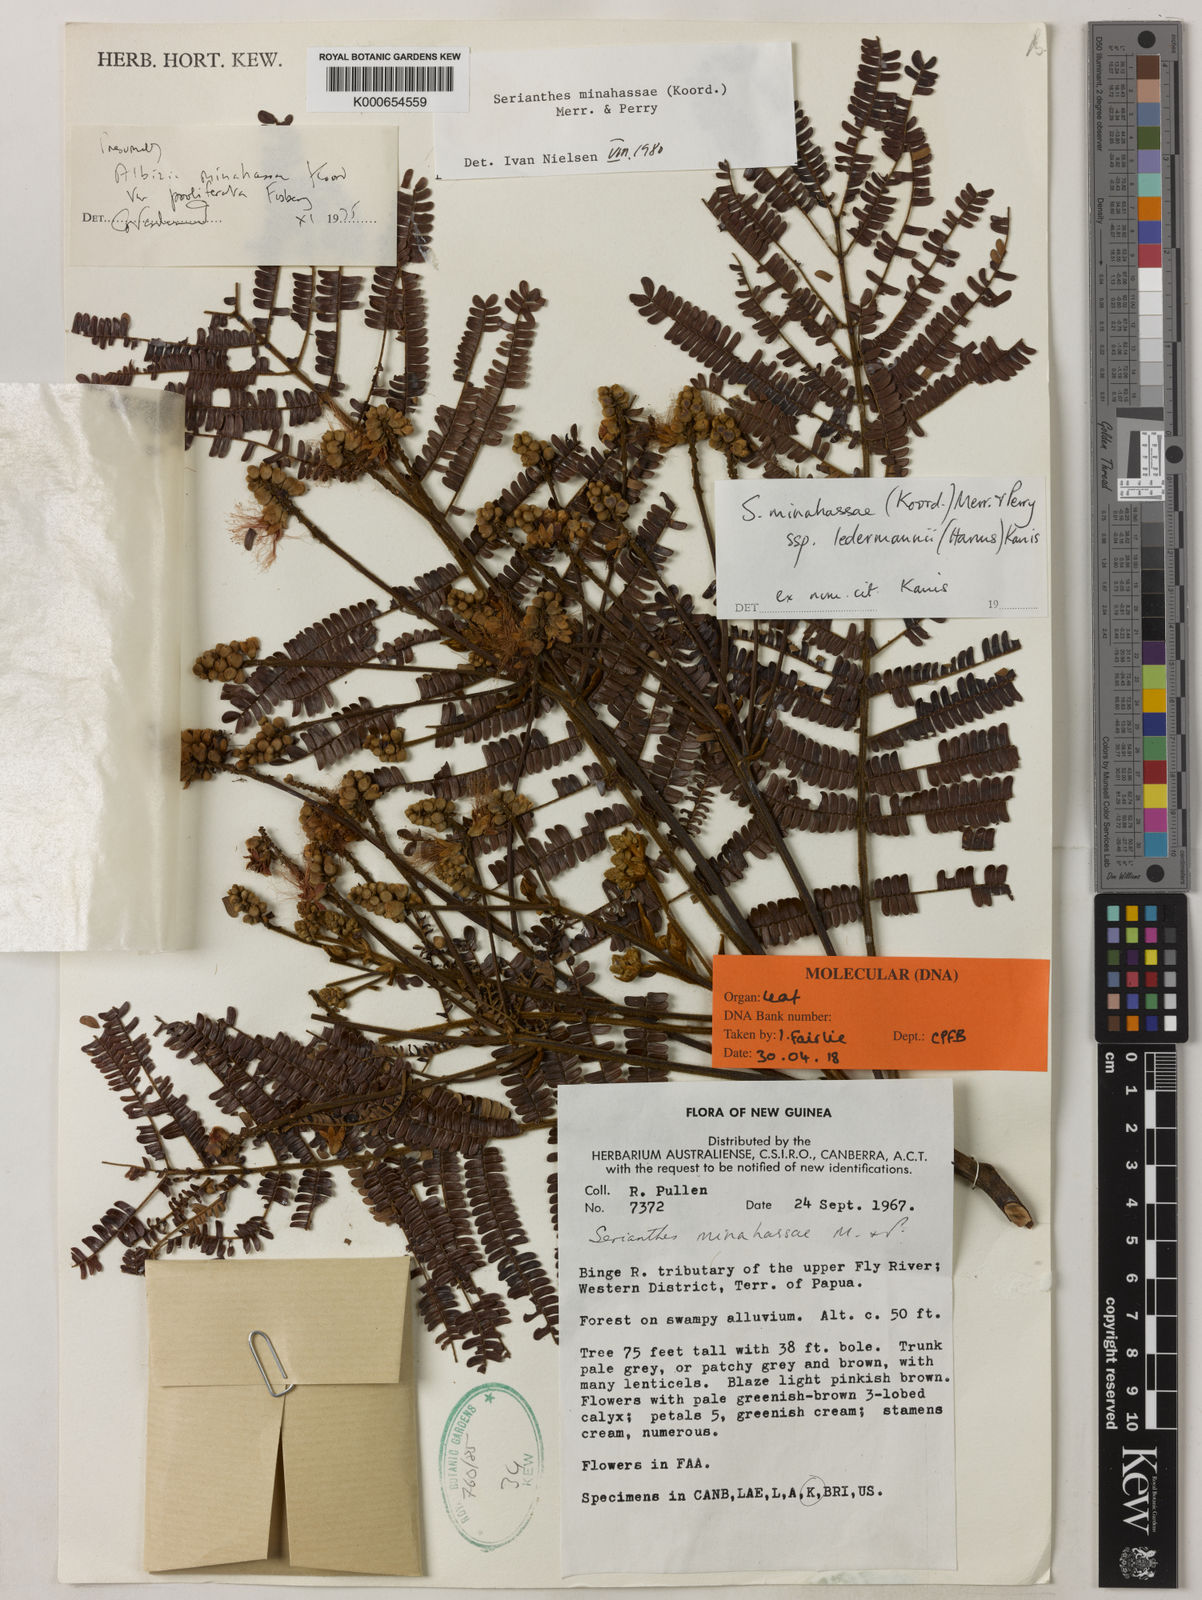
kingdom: Plantae
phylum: Tracheophyta
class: Magnoliopsida
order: Fabales
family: Fabaceae
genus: Serianthes
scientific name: Serianthes minahassae
